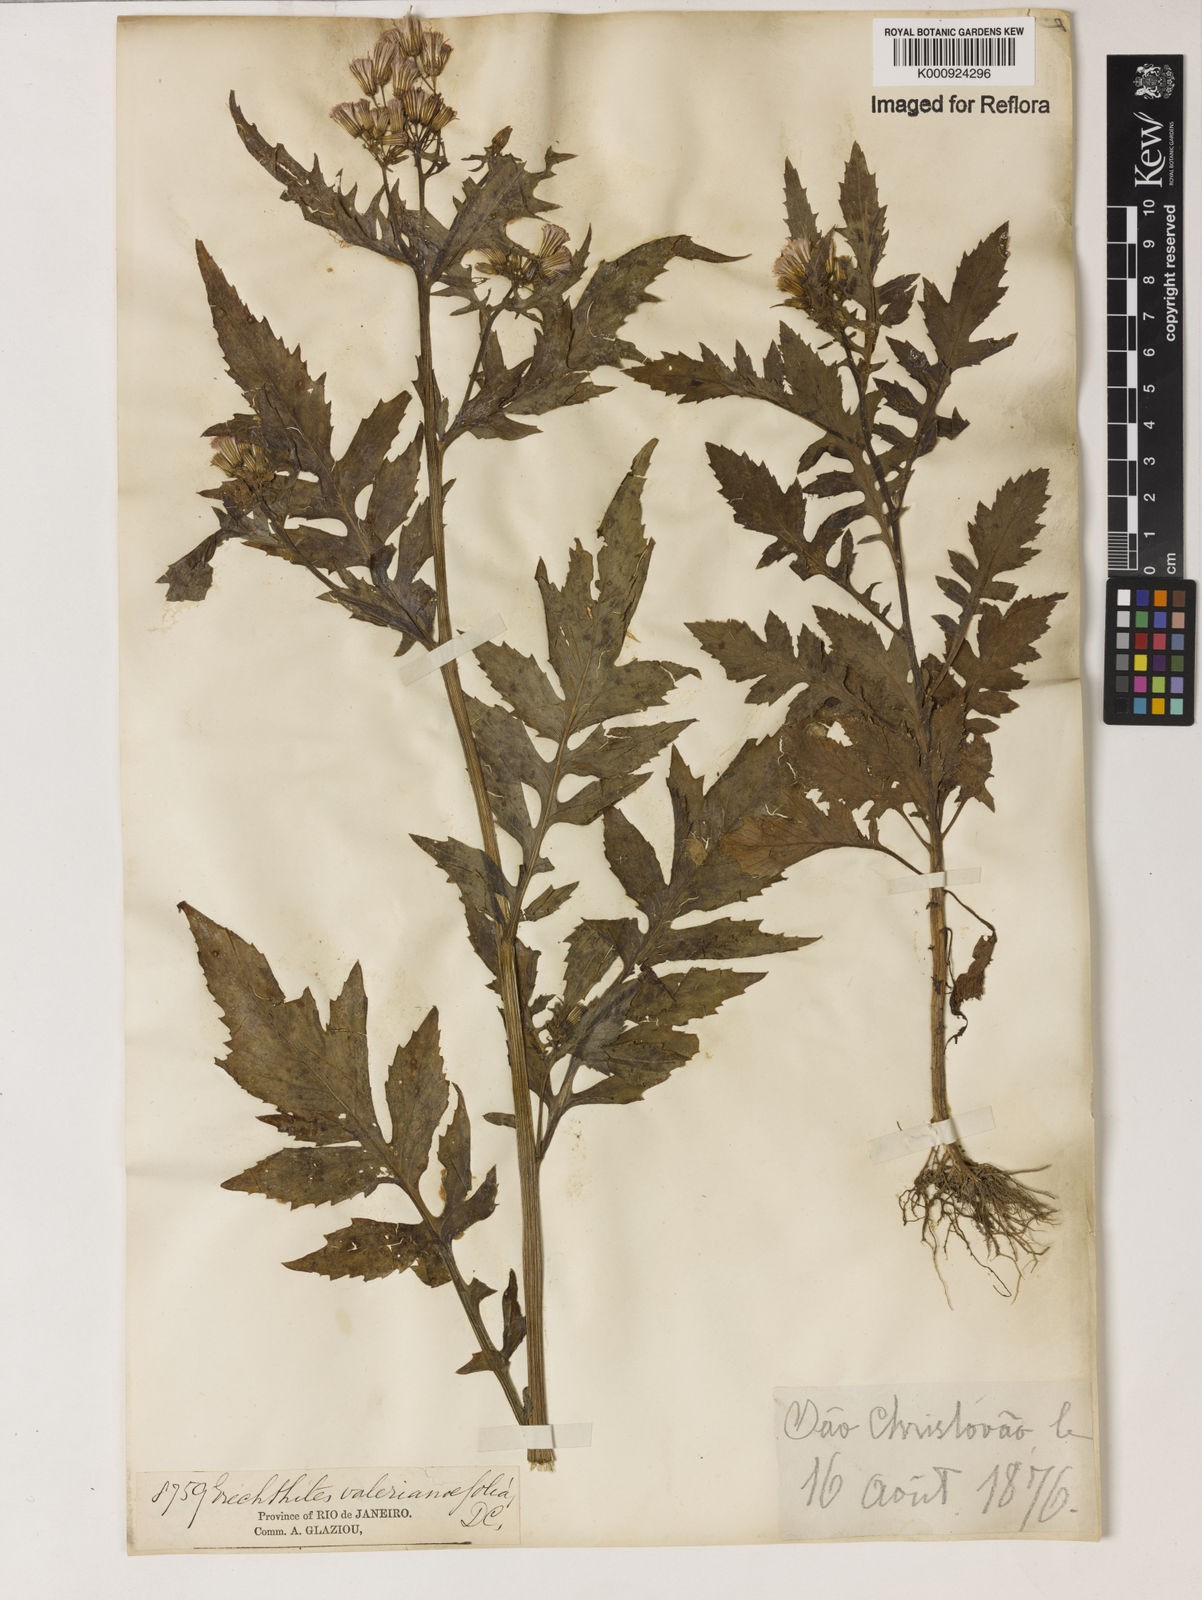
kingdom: Plantae
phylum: Tracheophyta
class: Magnoliopsida
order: Asterales
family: Asteraceae
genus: Erechtites
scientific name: Erechtites valerianifolius
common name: Tropical burnweed
